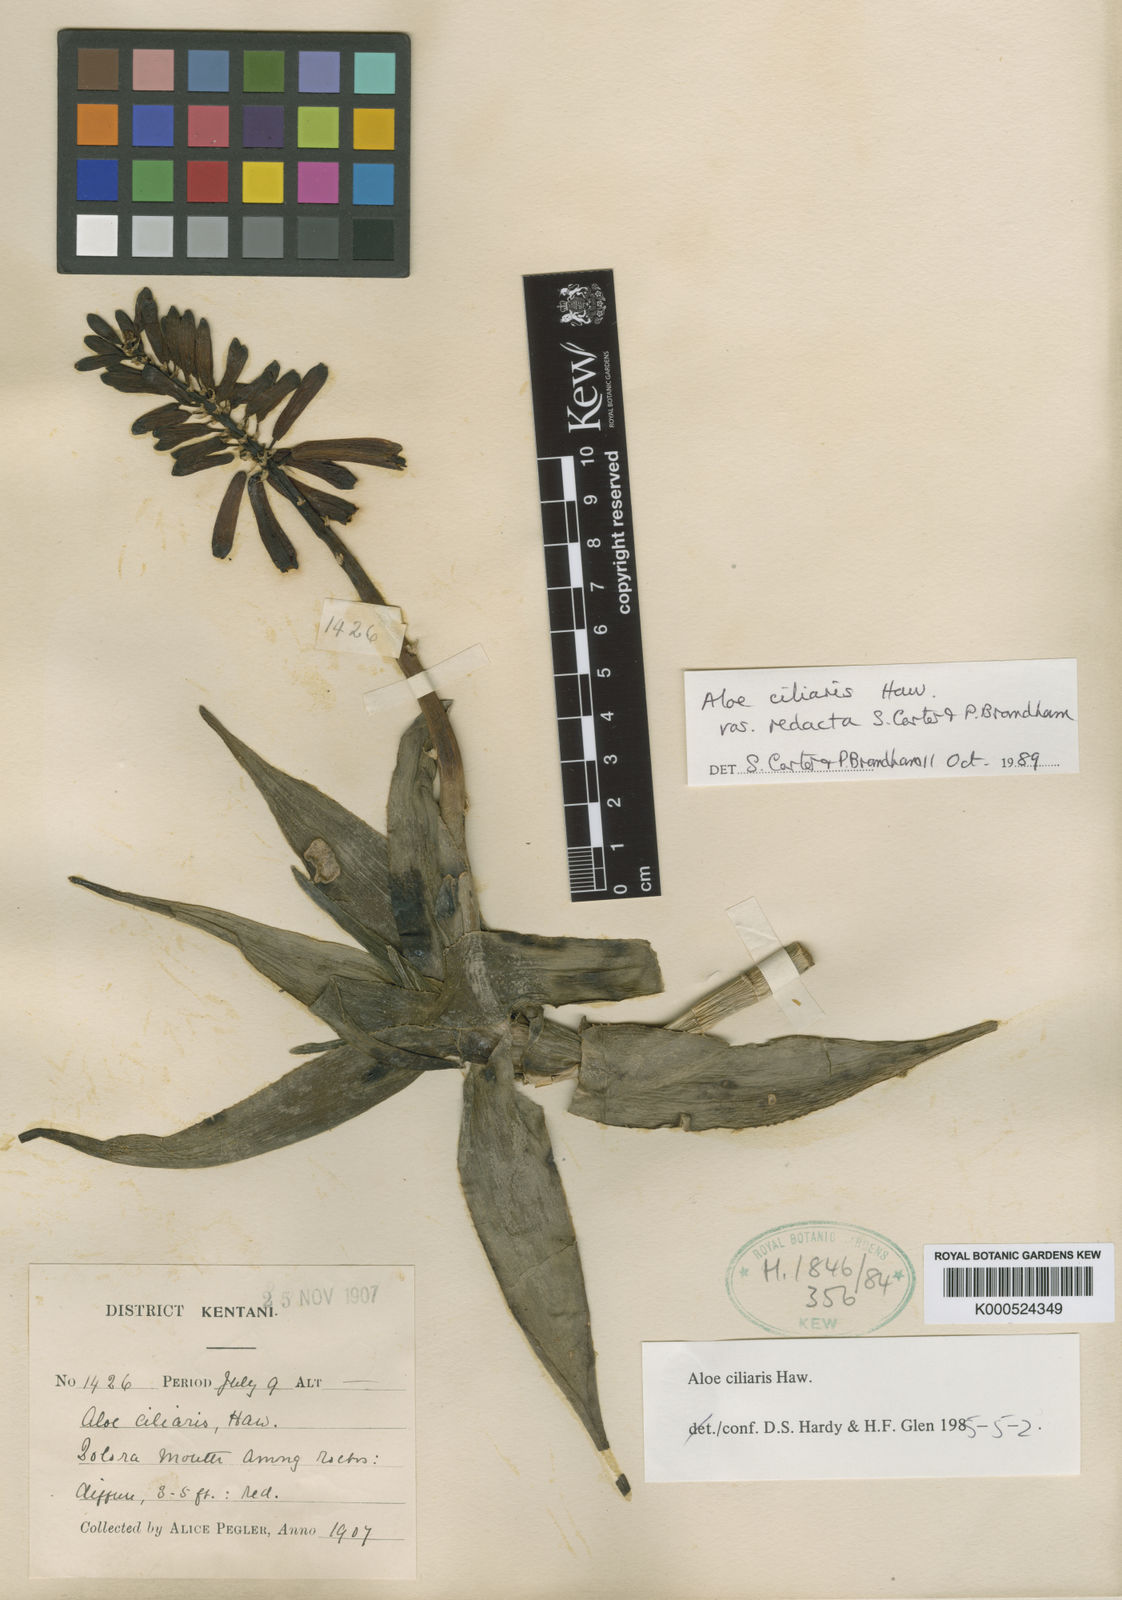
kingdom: Plantae
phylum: Tracheophyta
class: Liliopsida
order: Asparagales
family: Asphodelaceae
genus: Aloiampelos
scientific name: Aloiampelos ciliaris
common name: Climbing aloe
